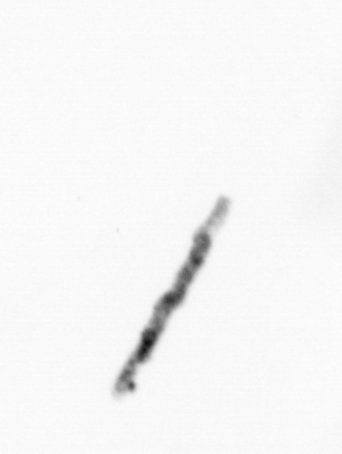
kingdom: Chromista
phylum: Ochrophyta
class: Bacillariophyceae
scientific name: Bacillariophyceae
